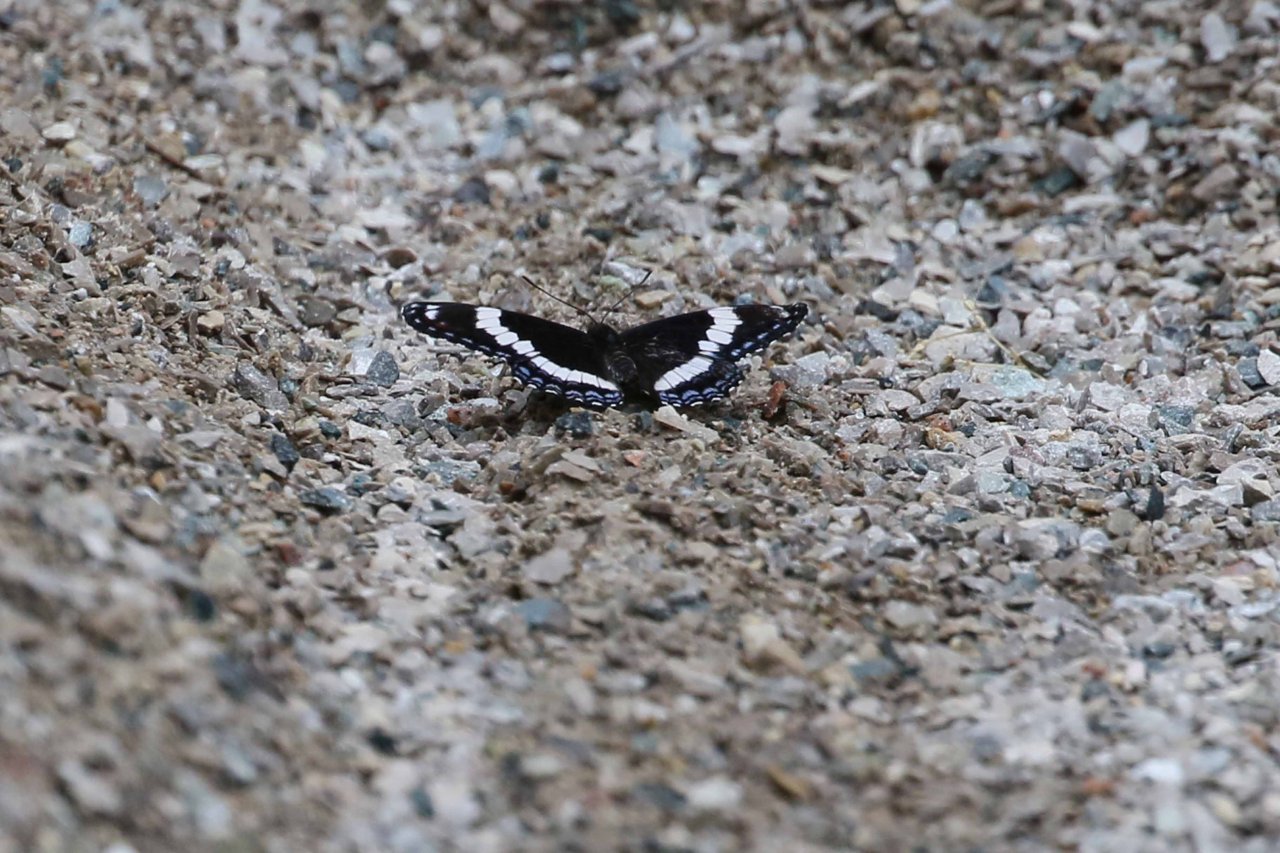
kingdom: Animalia
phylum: Arthropoda
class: Insecta
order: Lepidoptera
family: Nymphalidae
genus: Limenitis
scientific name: Limenitis arthemis
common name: Red-spotted Admiral
